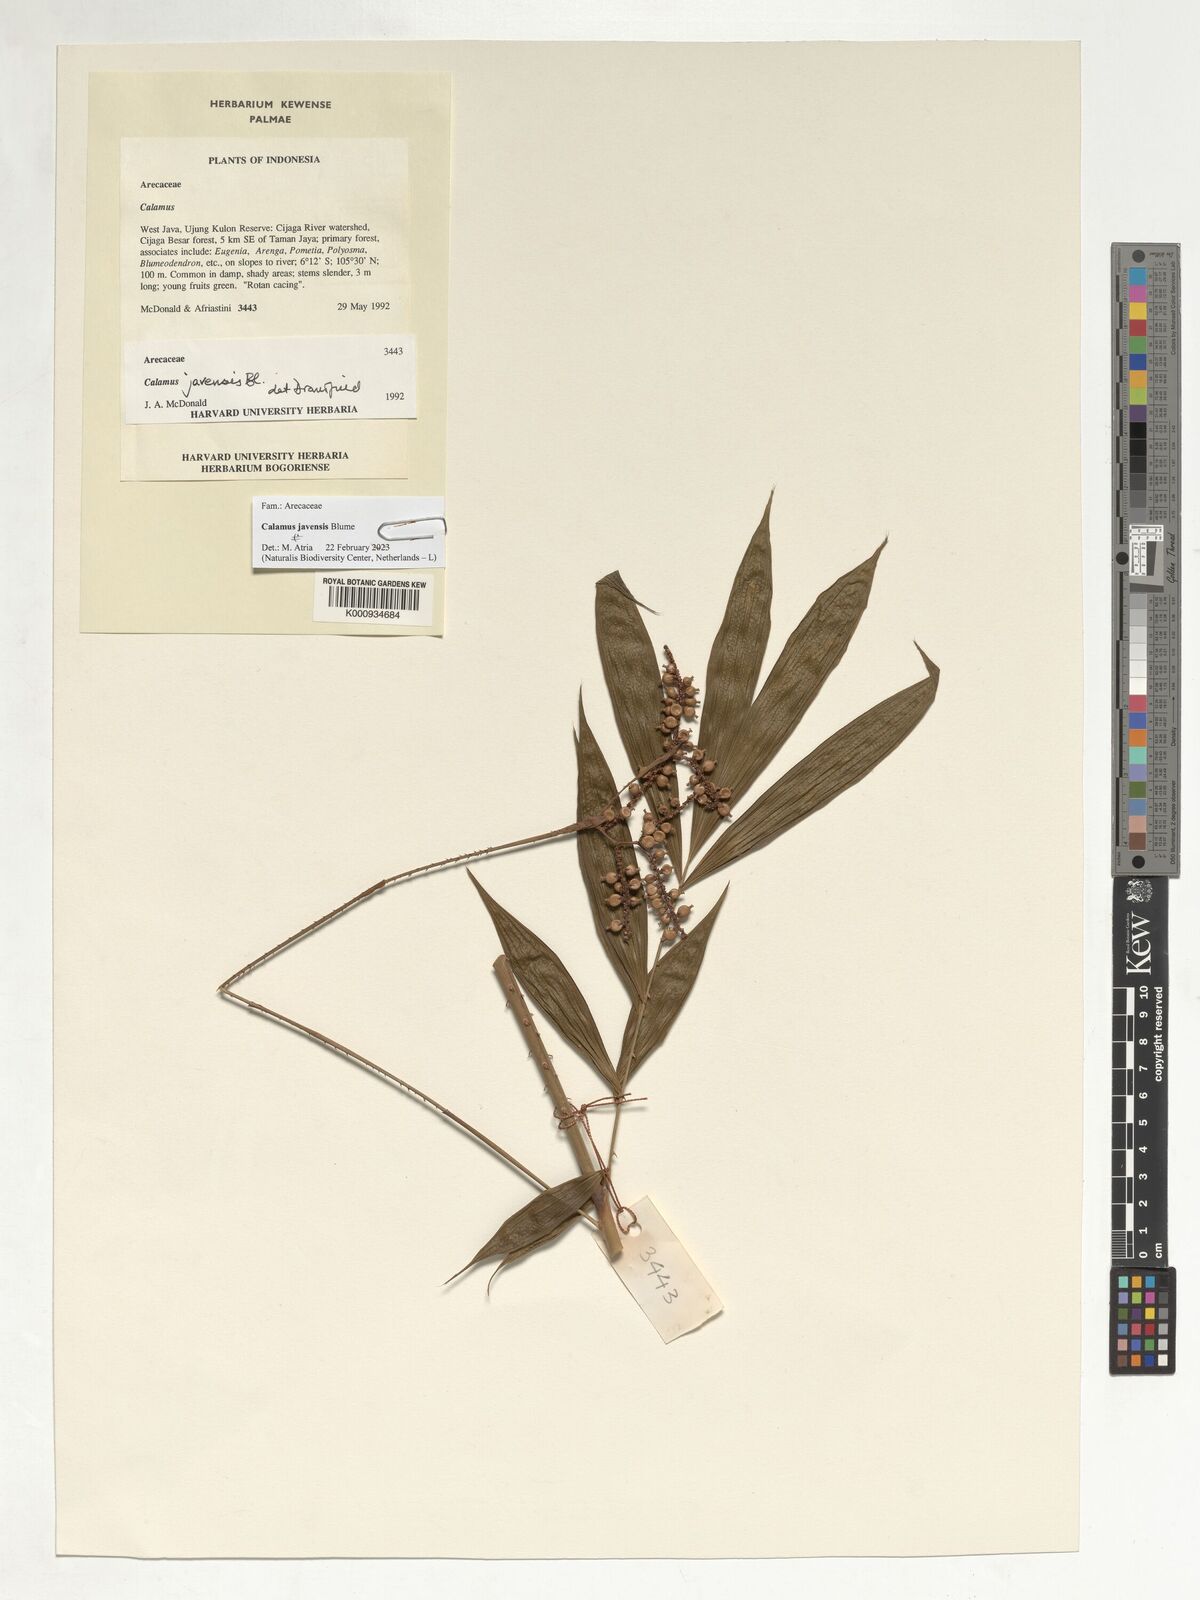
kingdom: Plantae
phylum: Tracheophyta
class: Liliopsida
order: Arecales
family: Arecaceae
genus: Calamus
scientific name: Calamus javensis
